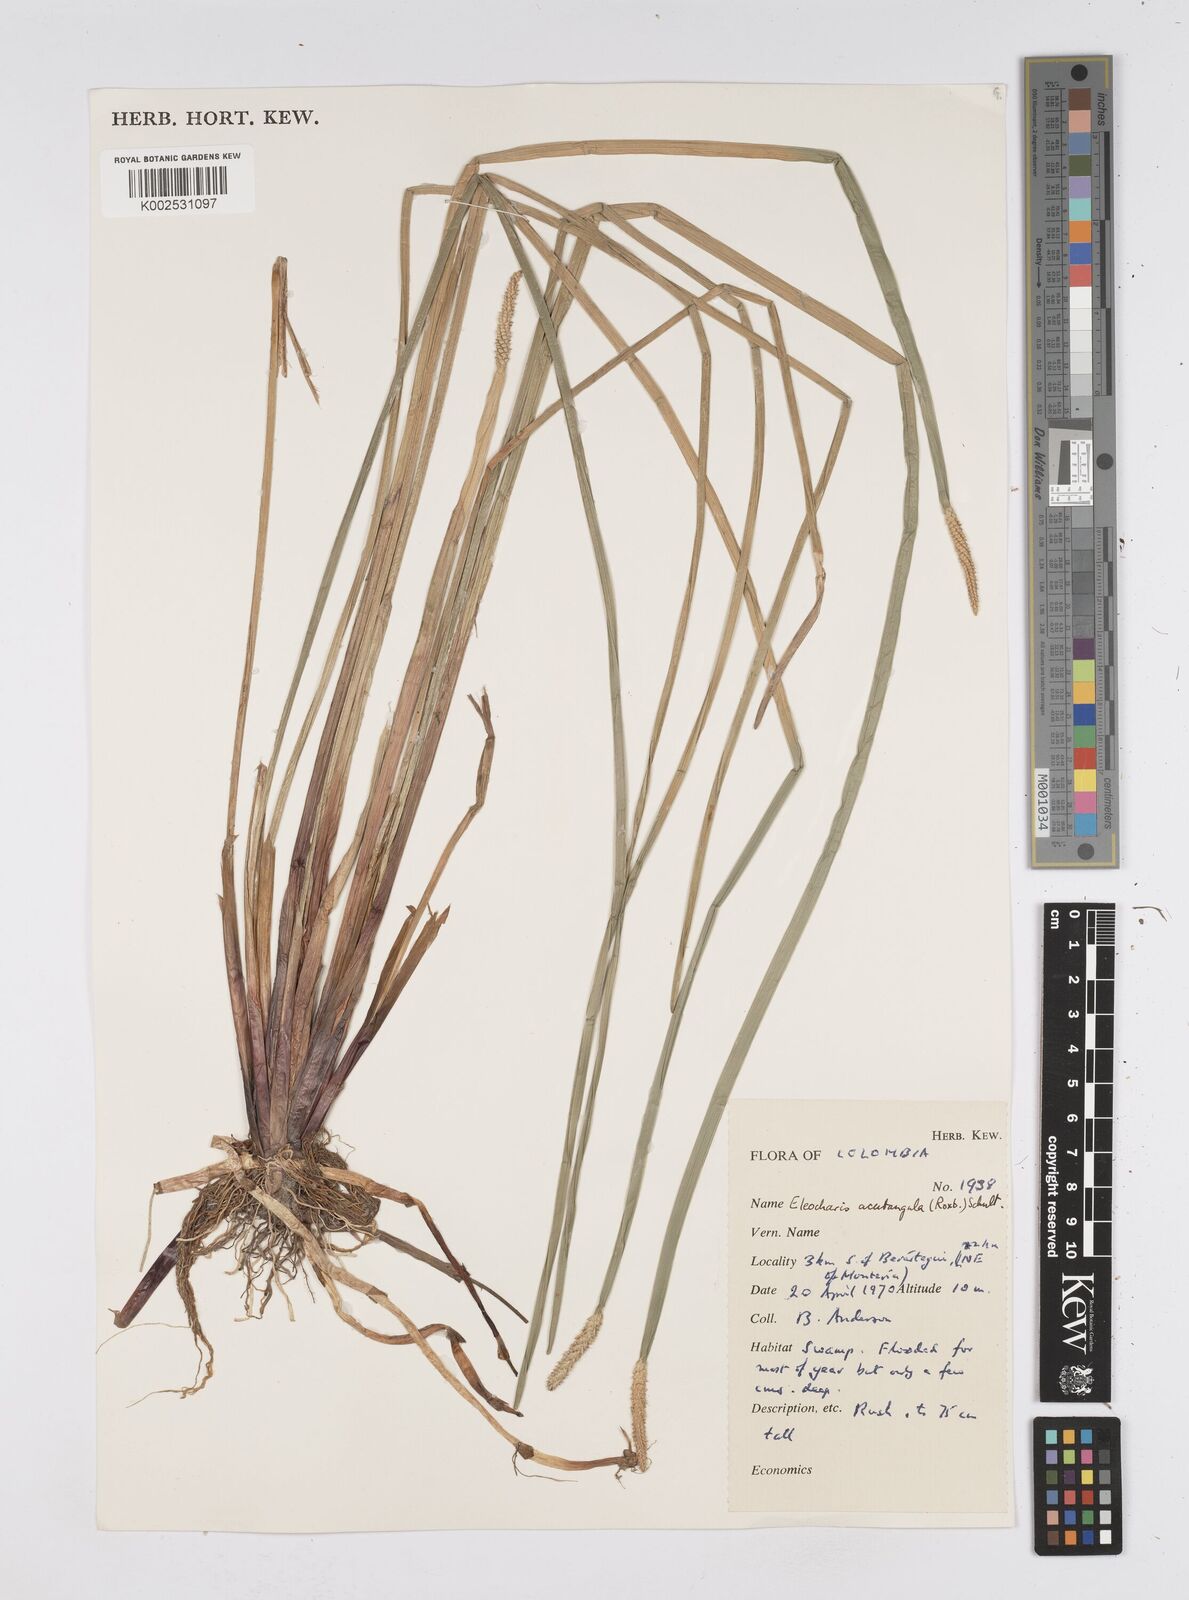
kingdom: Plantae
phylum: Tracheophyta
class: Liliopsida
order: Poales
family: Cyperaceae
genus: Eleocharis
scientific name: Eleocharis acutangula
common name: Acute spikerush
